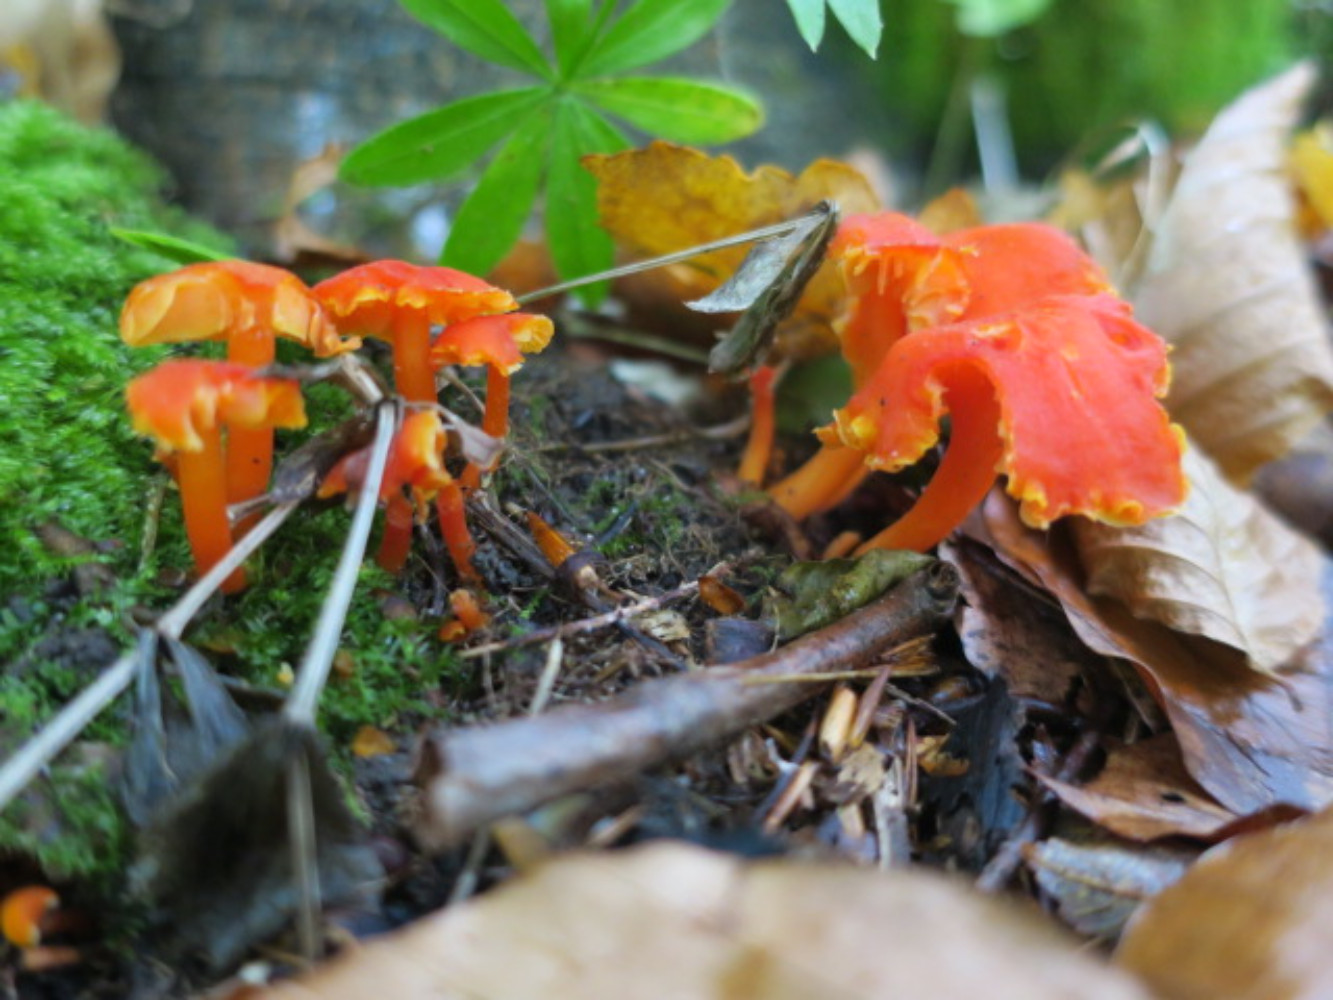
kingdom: Fungi
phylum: Basidiomycota
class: Agaricomycetes
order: Agaricales
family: Hygrophoraceae
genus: Hygrocybe
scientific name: Hygrocybe
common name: vokshat
